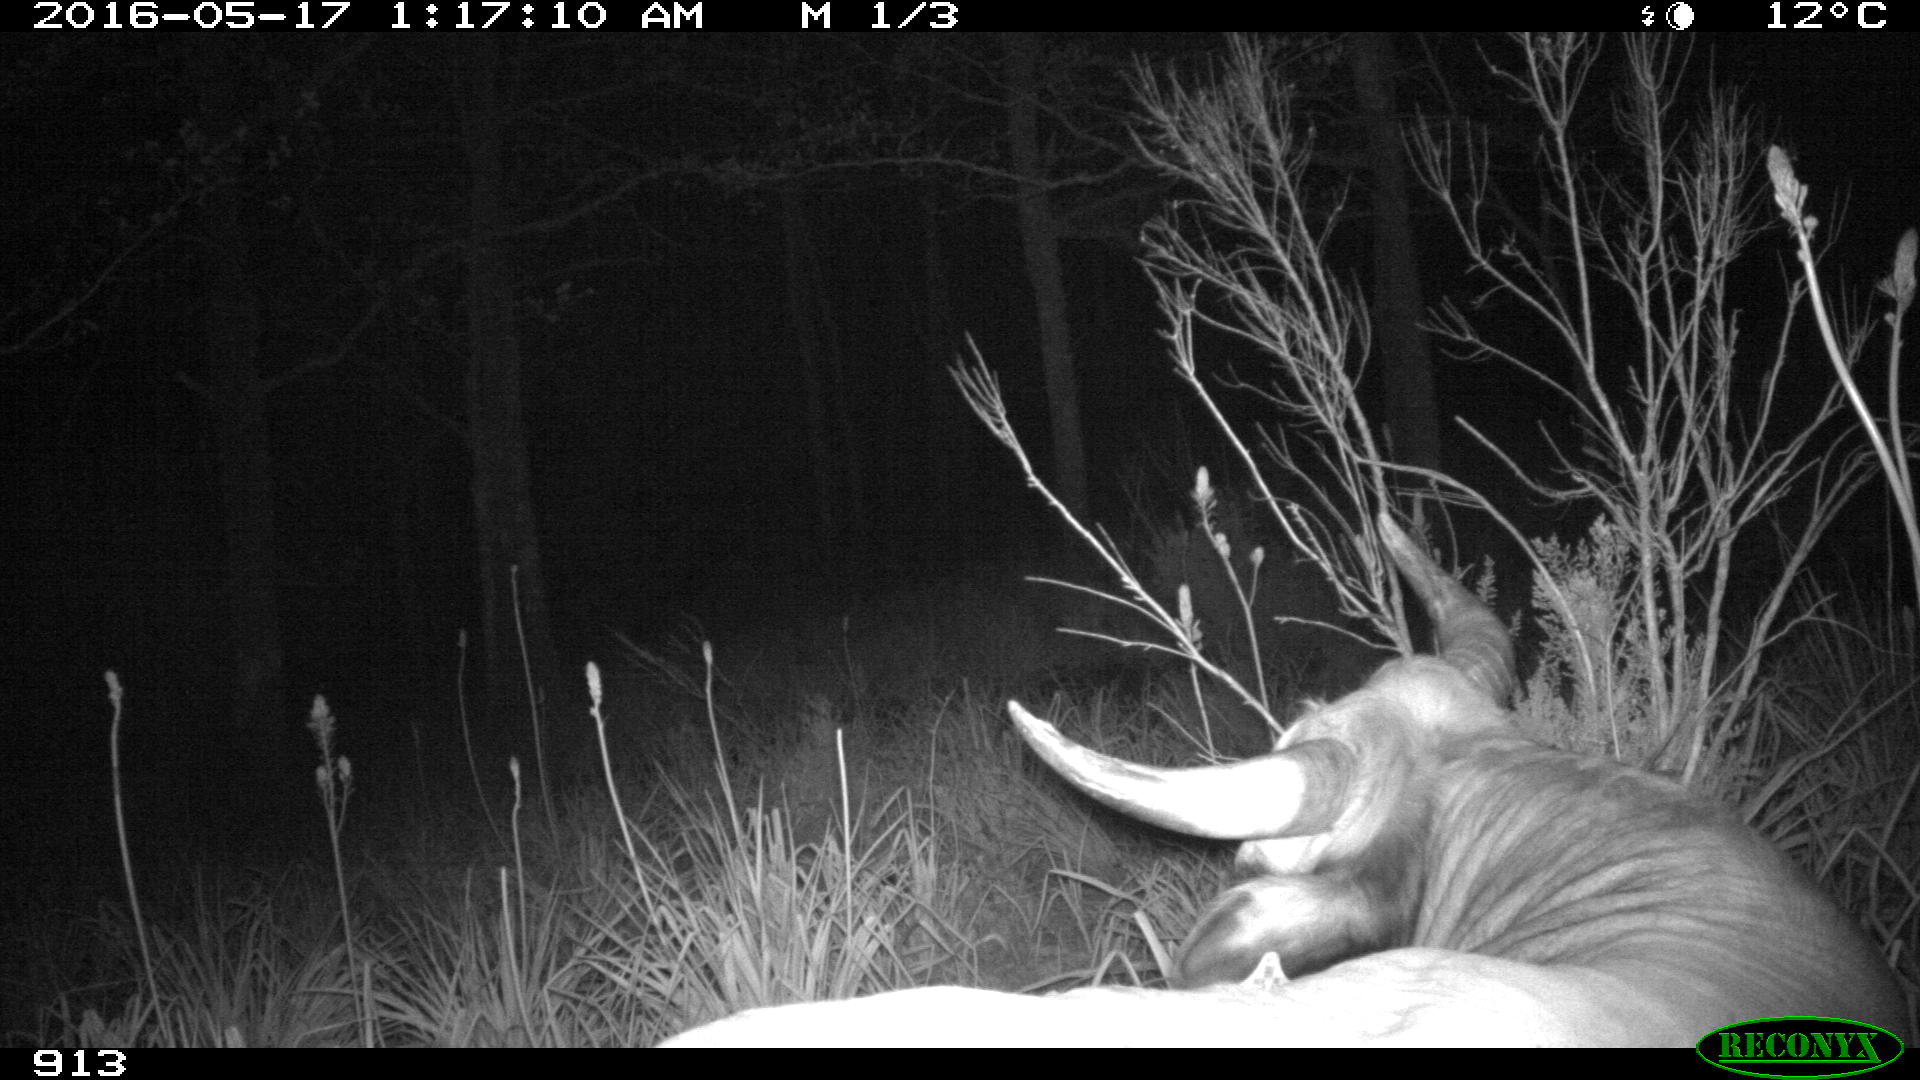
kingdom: Animalia
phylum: Chordata
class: Mammalia
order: Artiodactyla
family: Bovidae
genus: Bos
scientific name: Bos taurus
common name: Domesticated cattle
